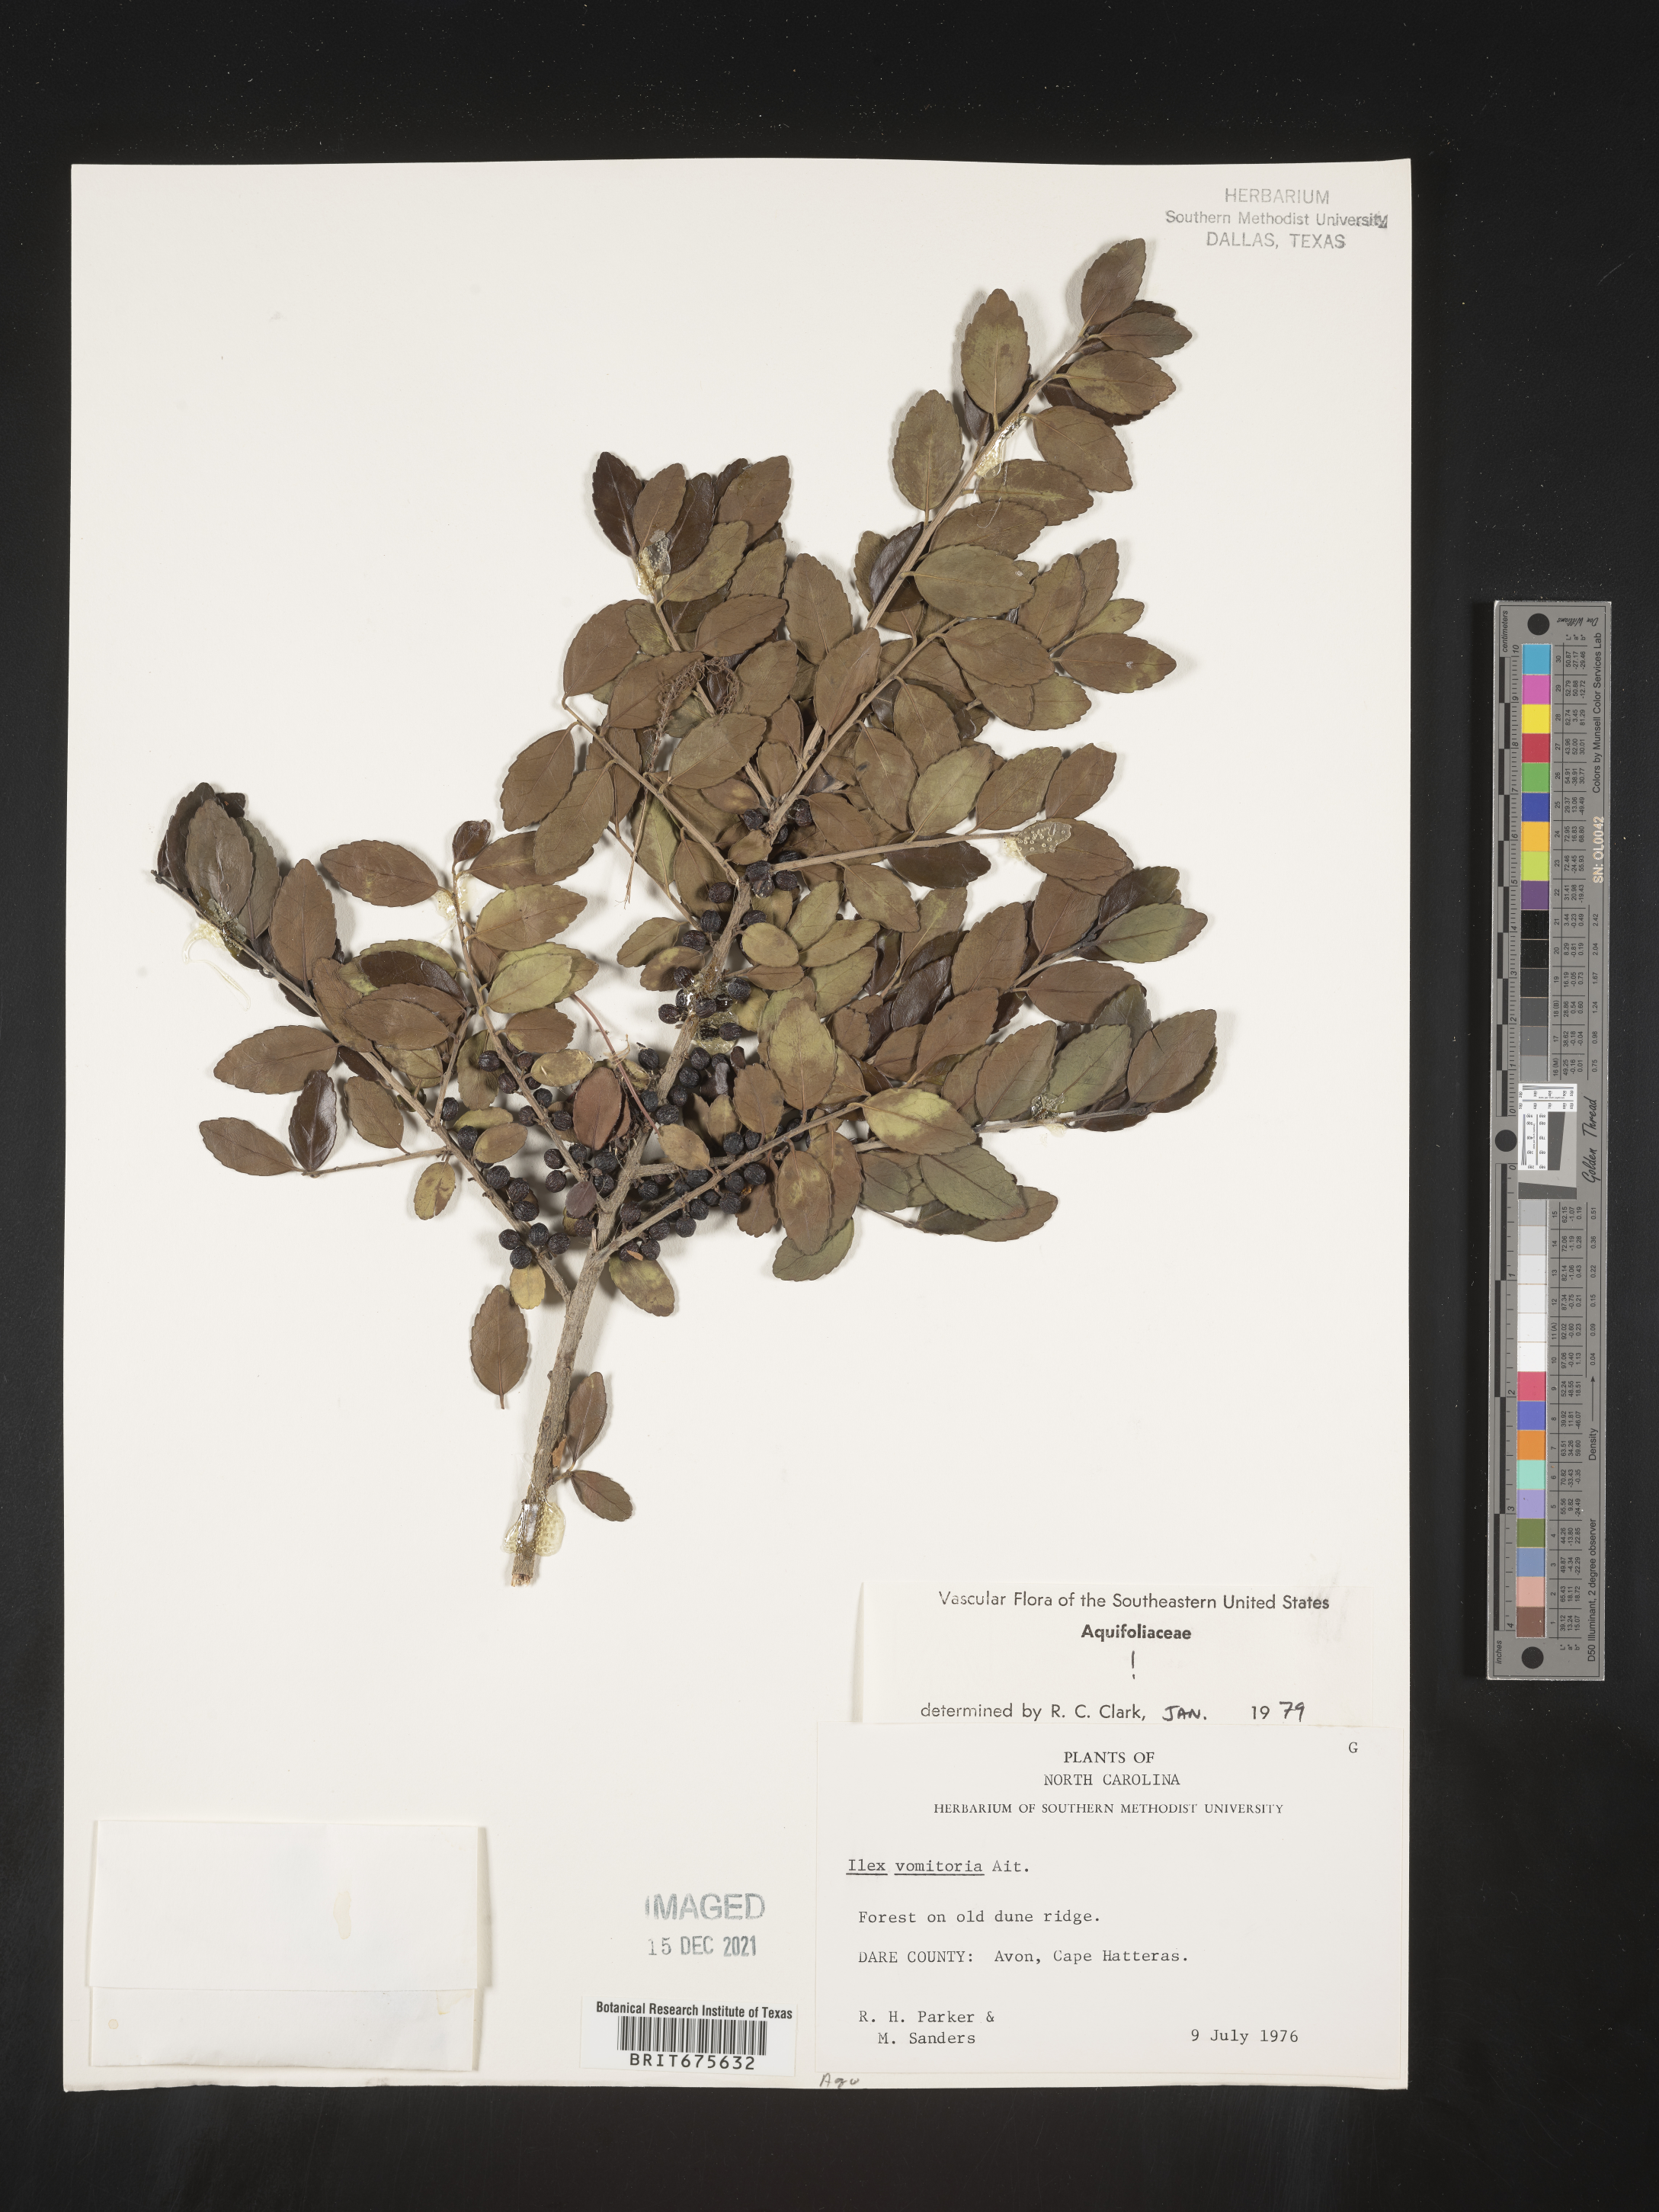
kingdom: Plantae
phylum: Tracheophyta
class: Magnoliopsida
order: Aquifoliales
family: Aquifoliaceae
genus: Ilex
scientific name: Ilex vomitoria
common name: Yaupon holly
